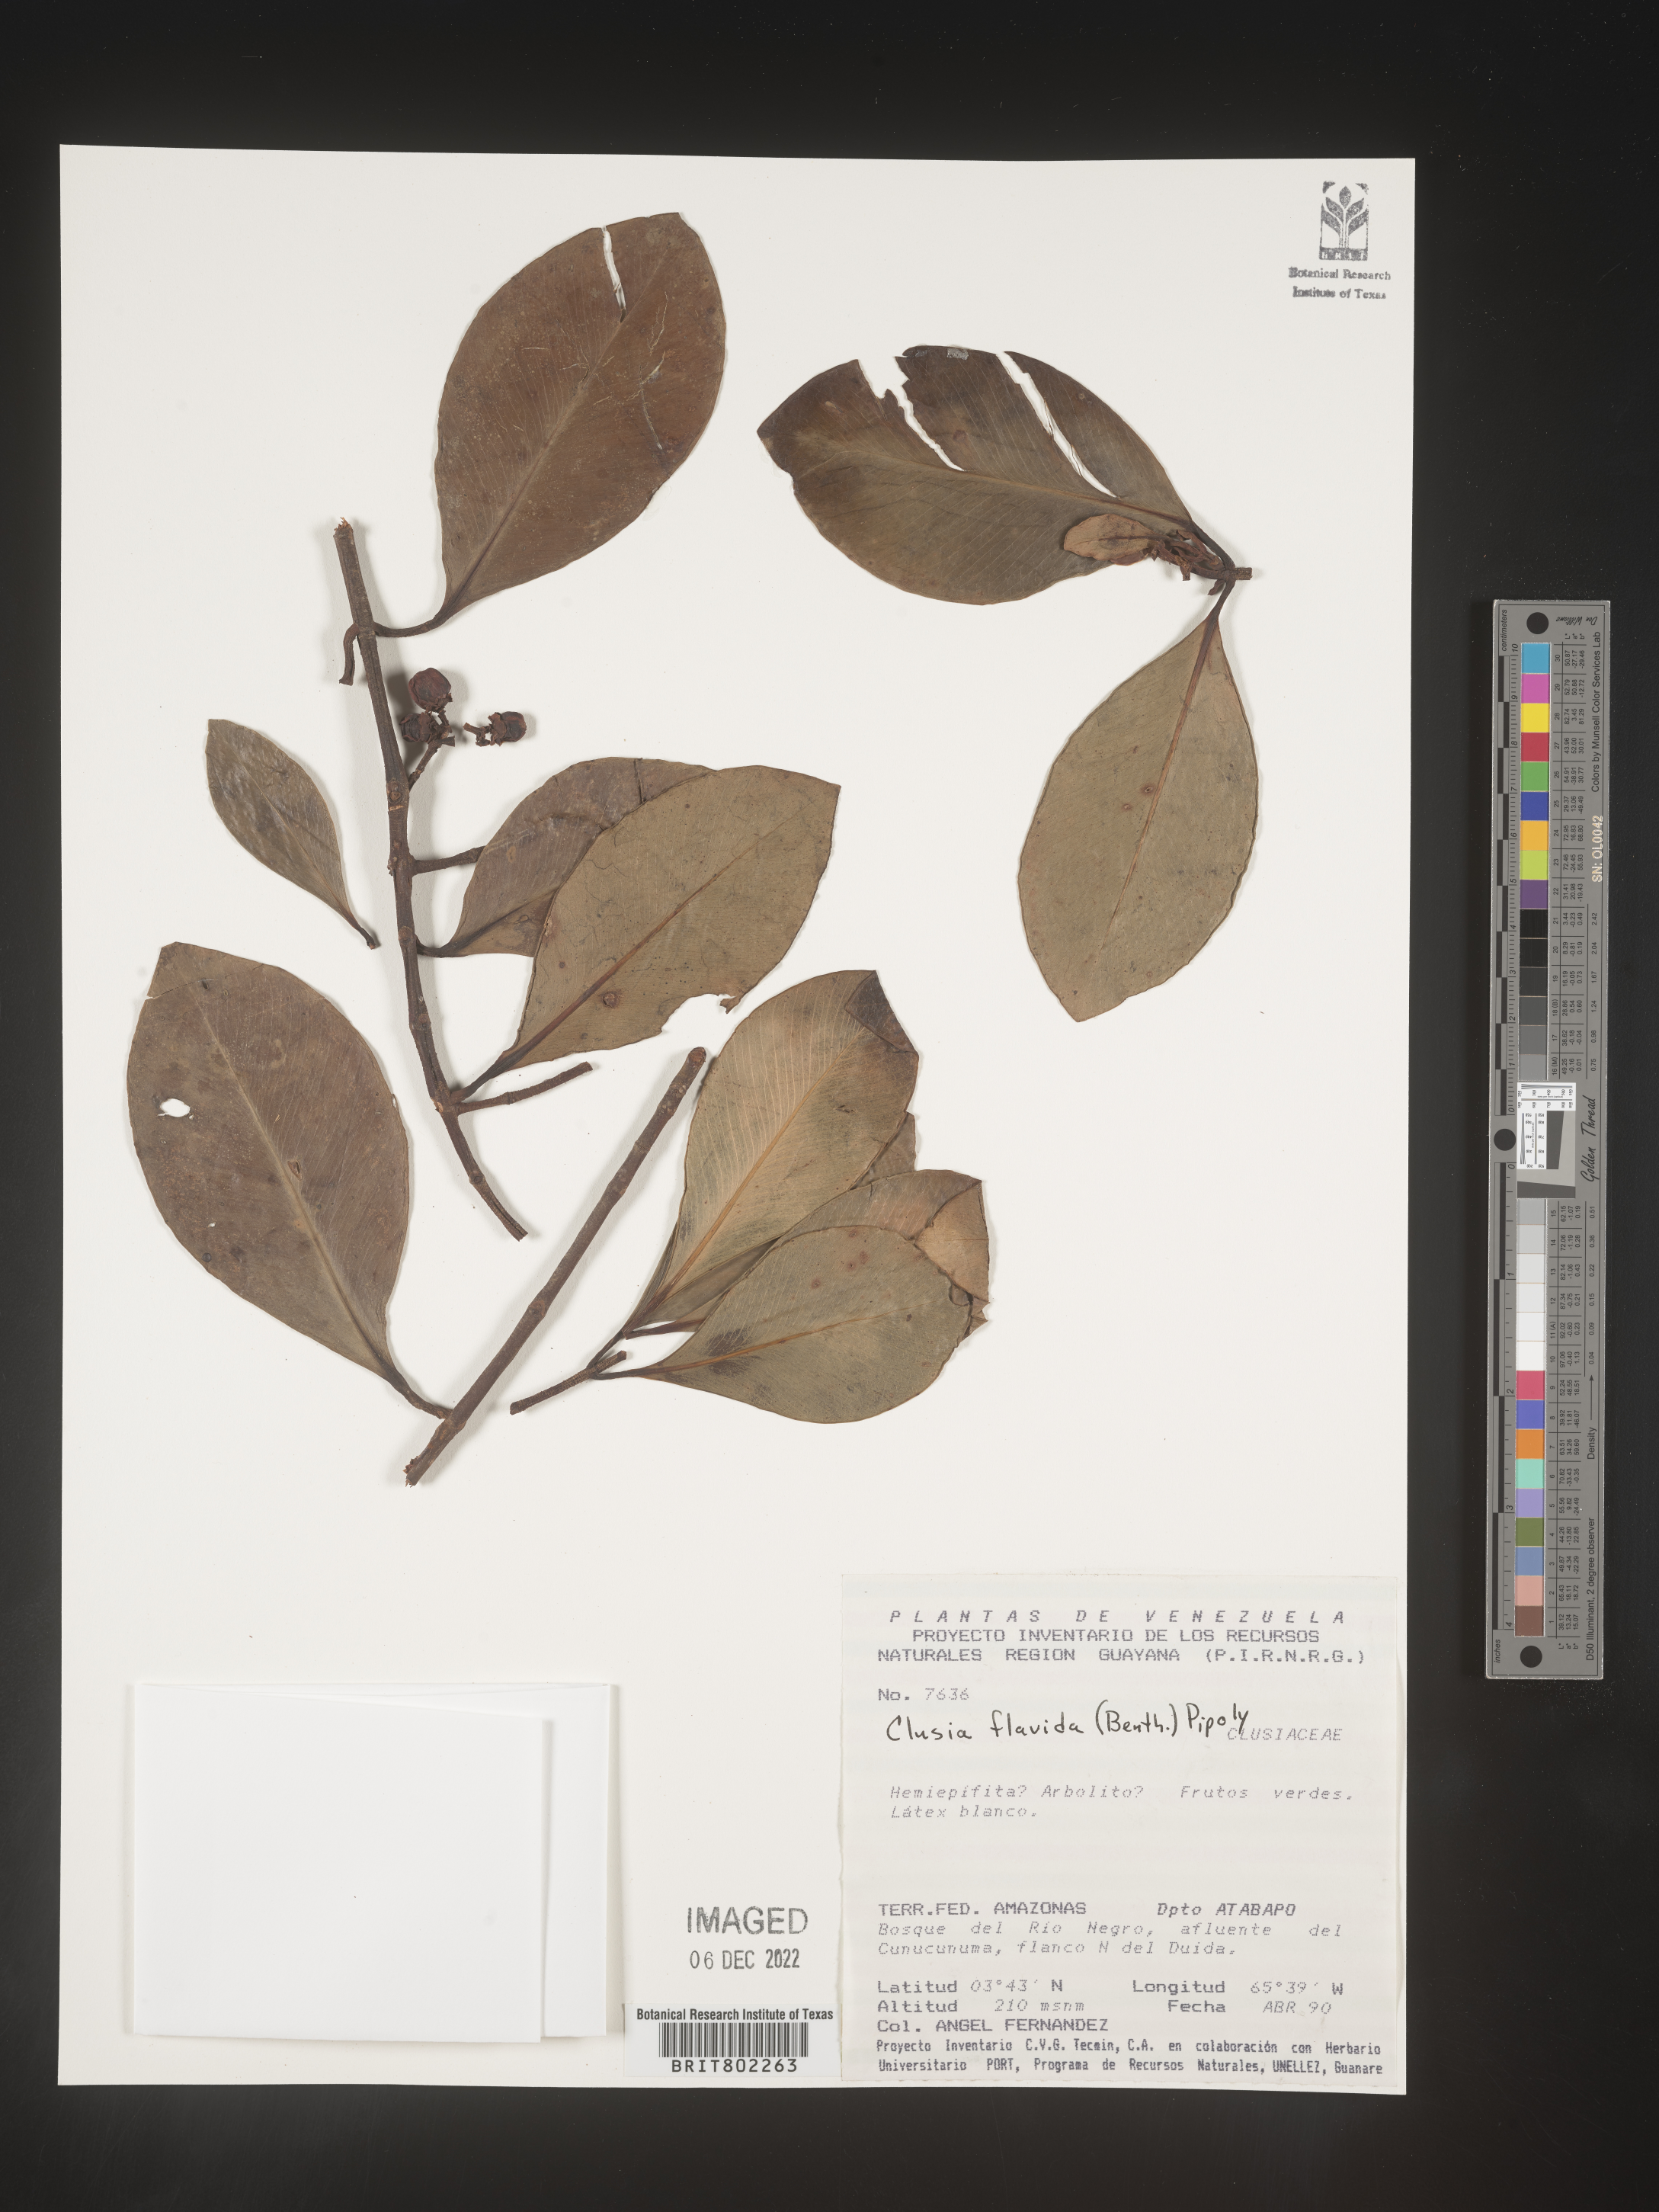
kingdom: Plantae
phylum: Tracheophyta
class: Magnoliopsida
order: Malpighiales
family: Clusiaceae
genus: Clusia
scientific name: Clusia flavida
